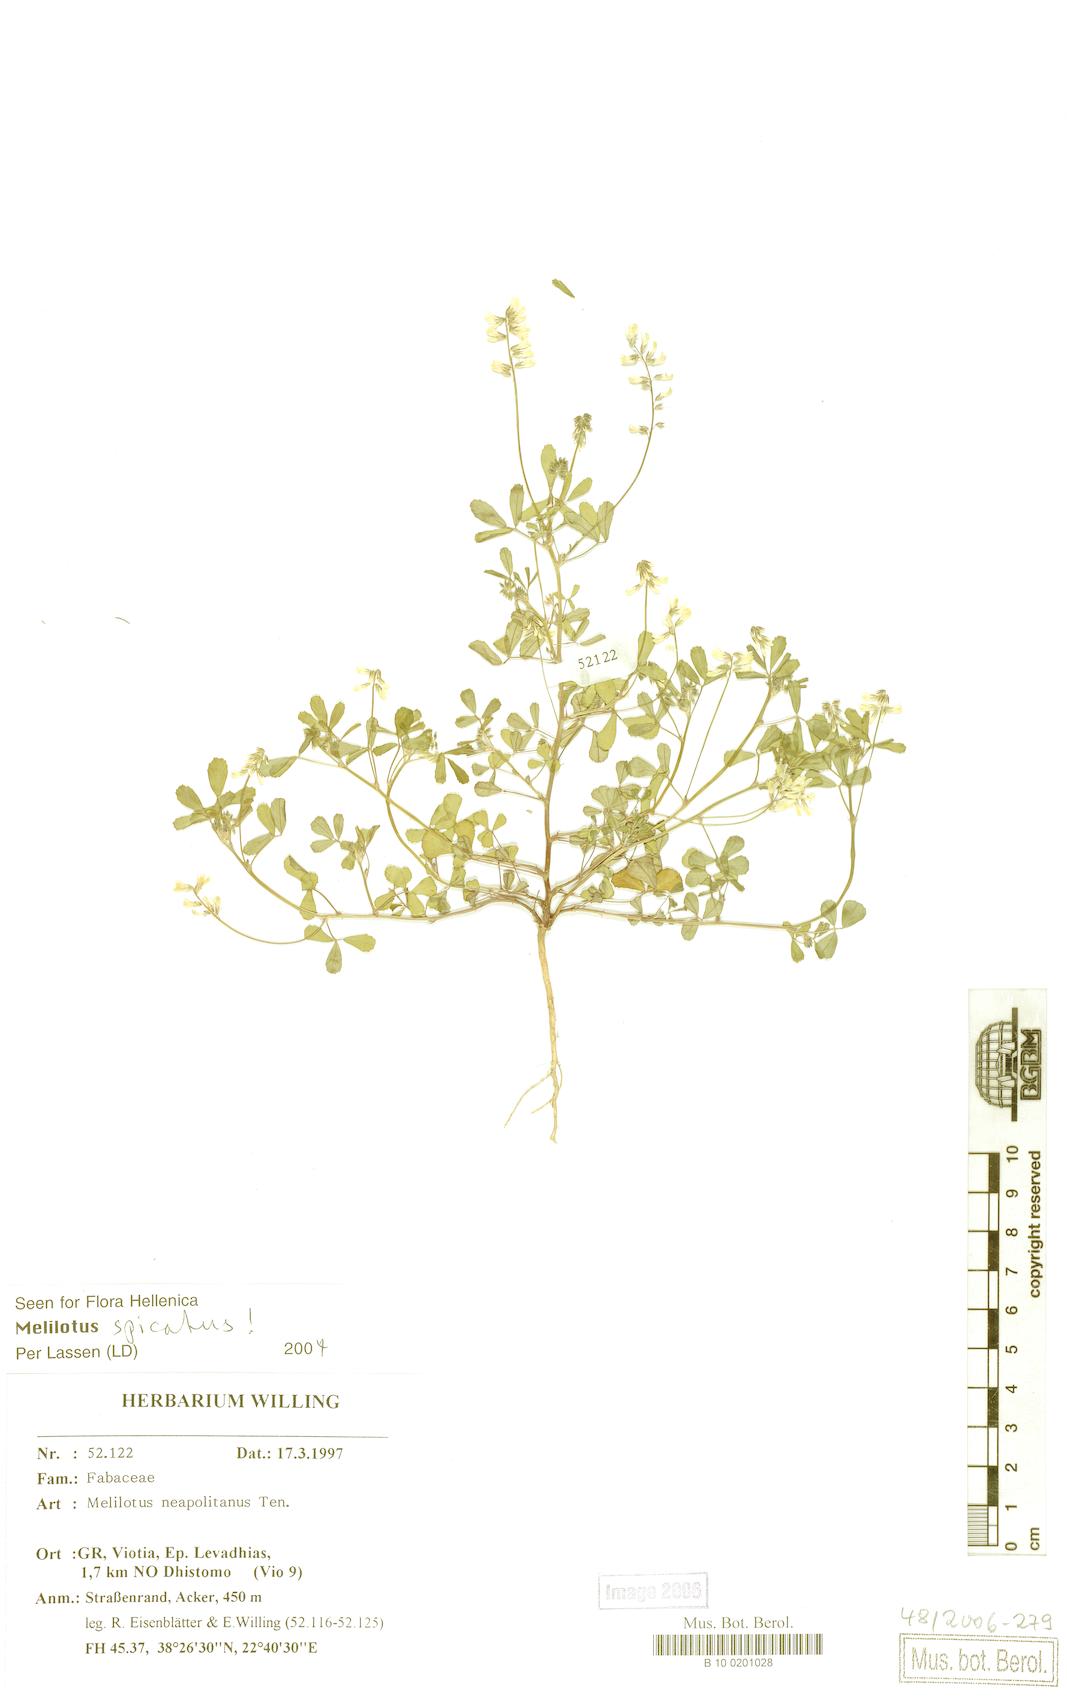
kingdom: Plantae
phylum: Tracheophyta
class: Magnoliopsida
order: Fabales
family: Fabaceae
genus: Melilotus
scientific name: Melilotus neapolitanus
